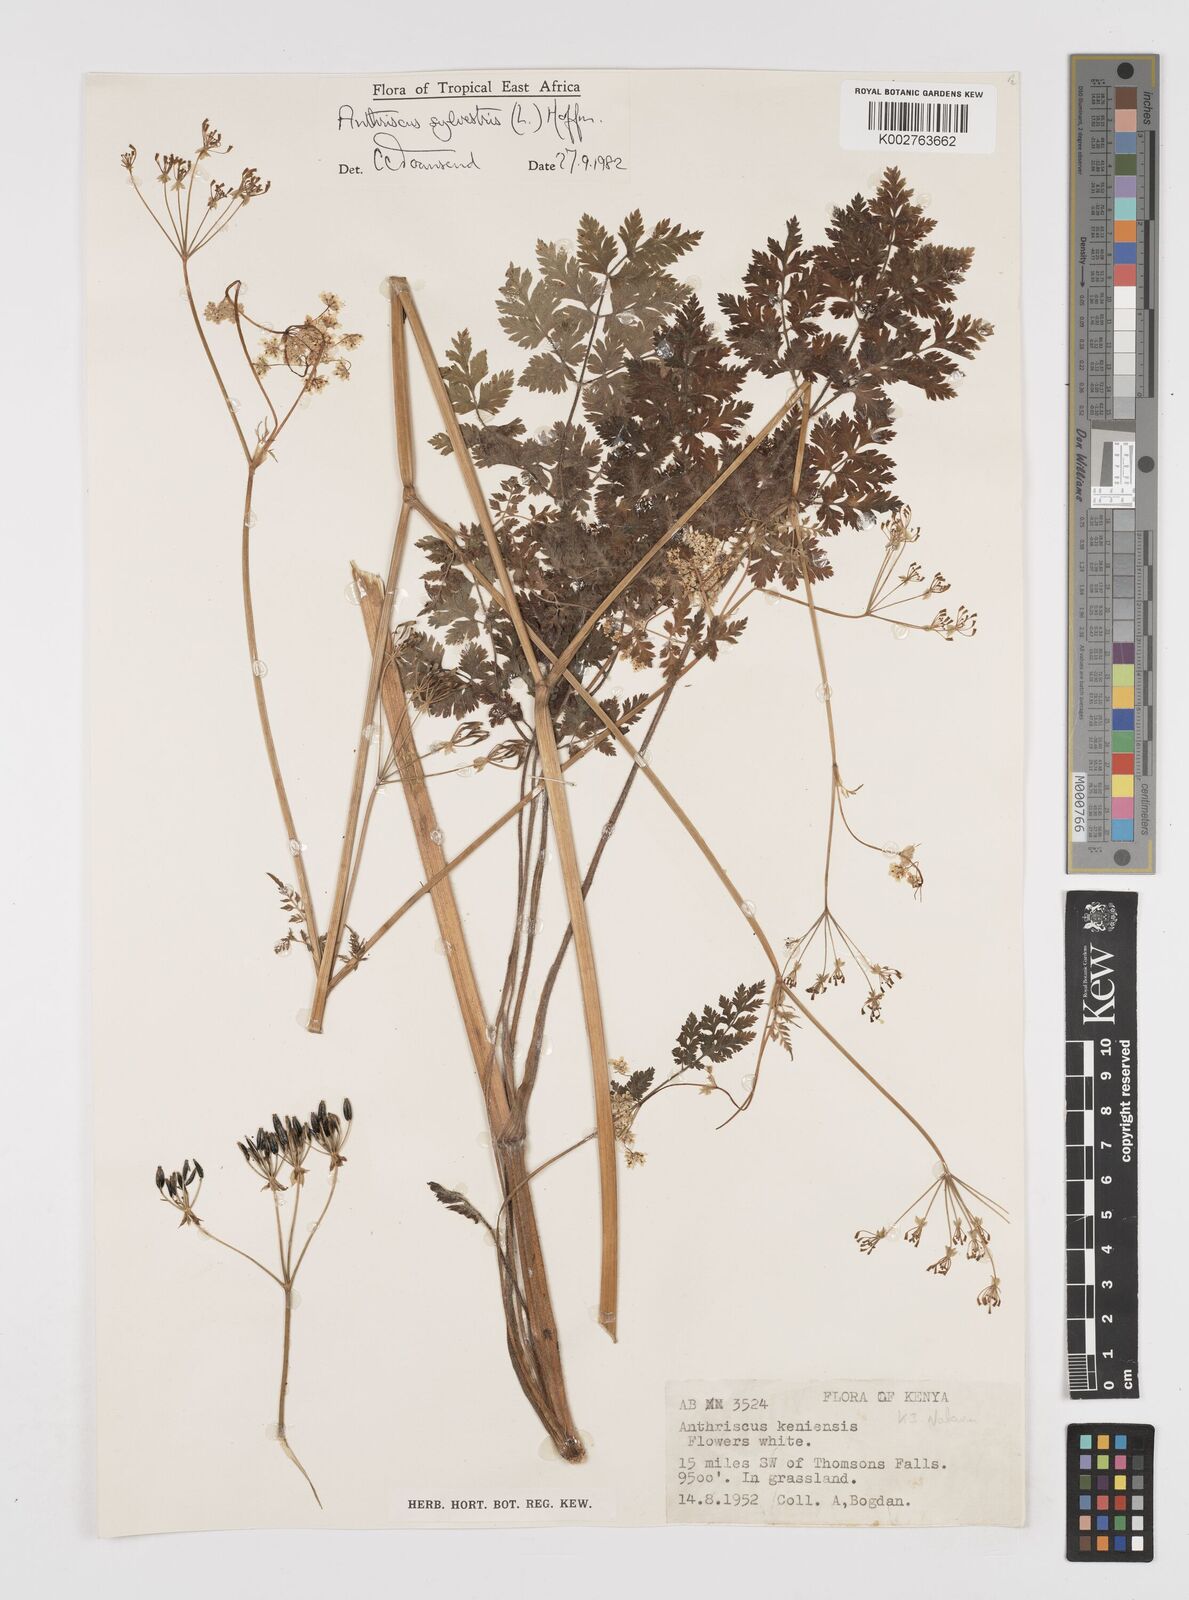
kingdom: Plantae
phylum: Tracheophyta
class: Magnoliopsida
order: Apiales
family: Apiaceae
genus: Anthriscus
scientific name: Anthriscus sylvestris
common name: Cow parsley
